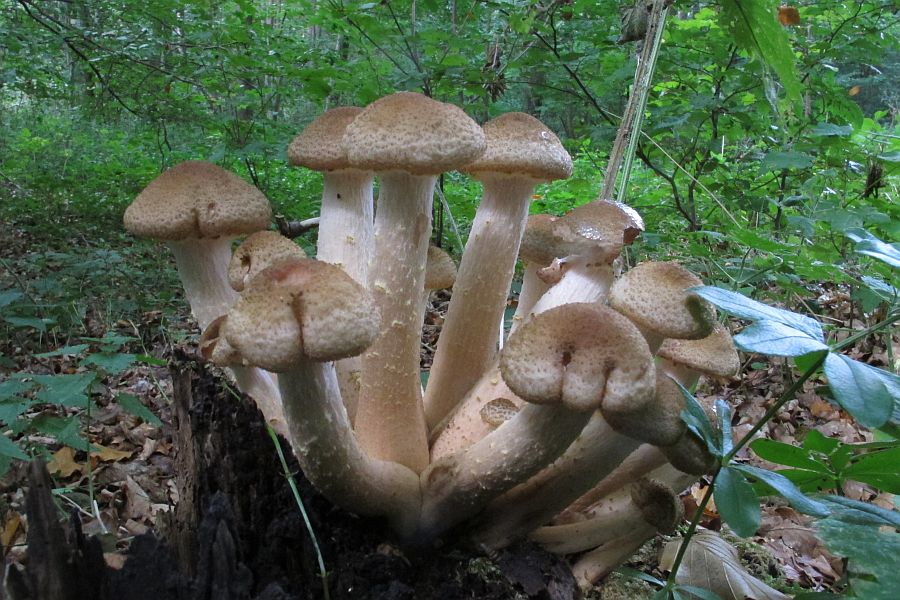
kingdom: Fungi
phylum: Basidiomycota
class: Agaricomycetes
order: Agaricales
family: Physalacriaceae
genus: Armillaria
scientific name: Armillaria lutea
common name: køllestokket honningsvamp
